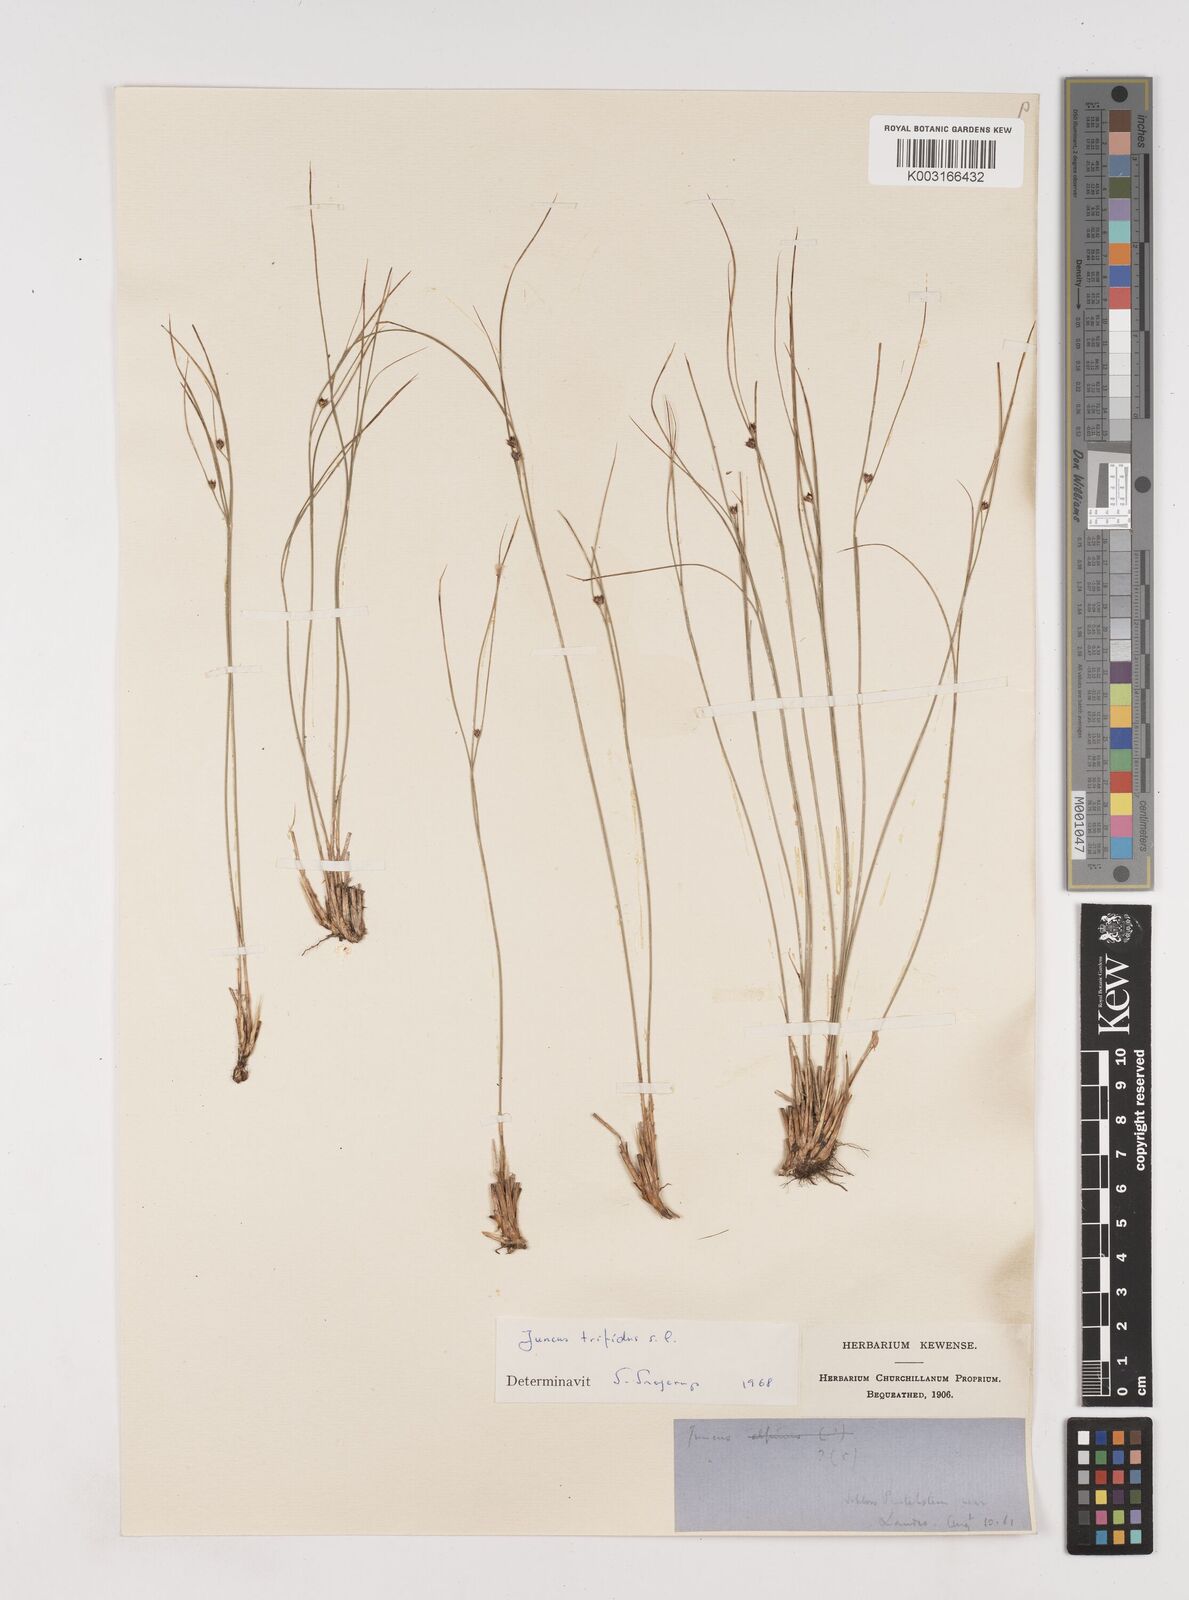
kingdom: Plantae
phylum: Tracheophyta
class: Liliopsida
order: Poales
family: Juncaceae
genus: Oreojuncus
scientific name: Oreojuncus trifidus
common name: Highland rush
